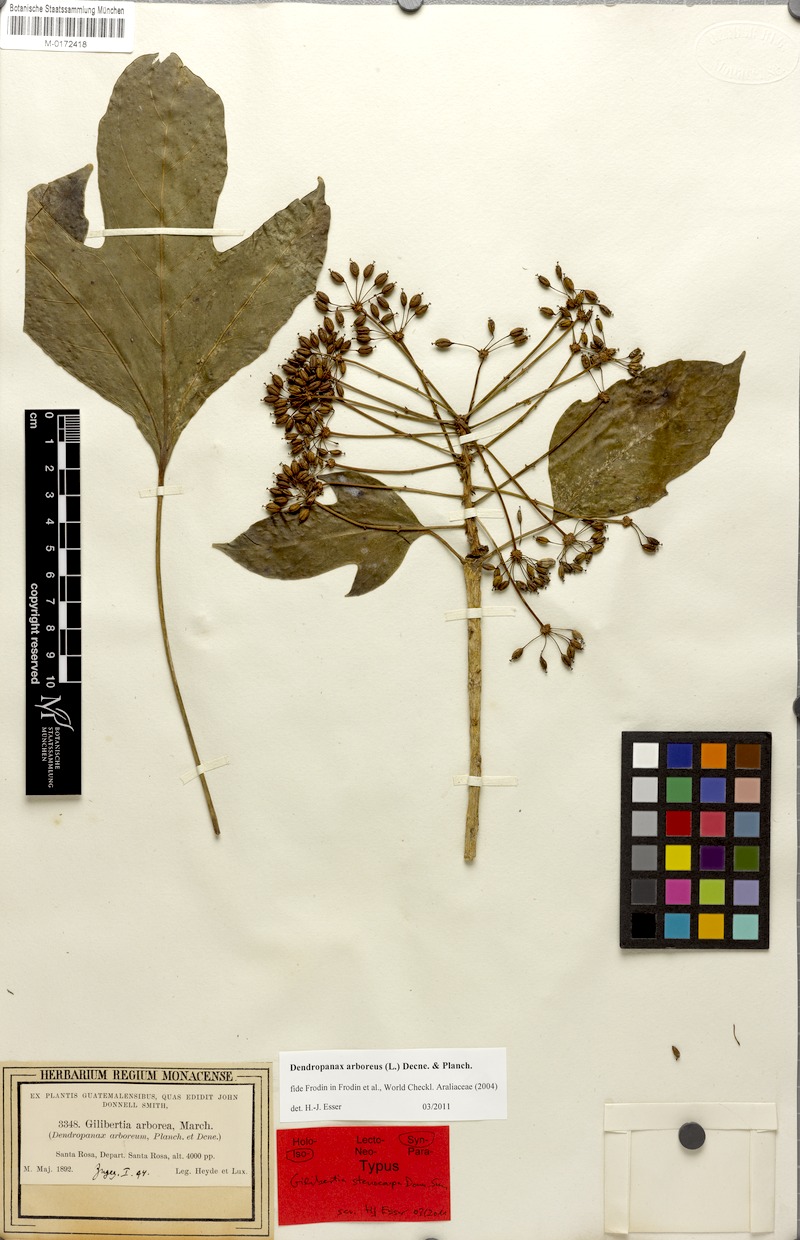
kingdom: Plantae
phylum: Tracheophyta
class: Magnoliopsida
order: Apiales
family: Araliaceae
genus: Dendropanax
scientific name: Dendropanax arboreus
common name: Potato-wood
